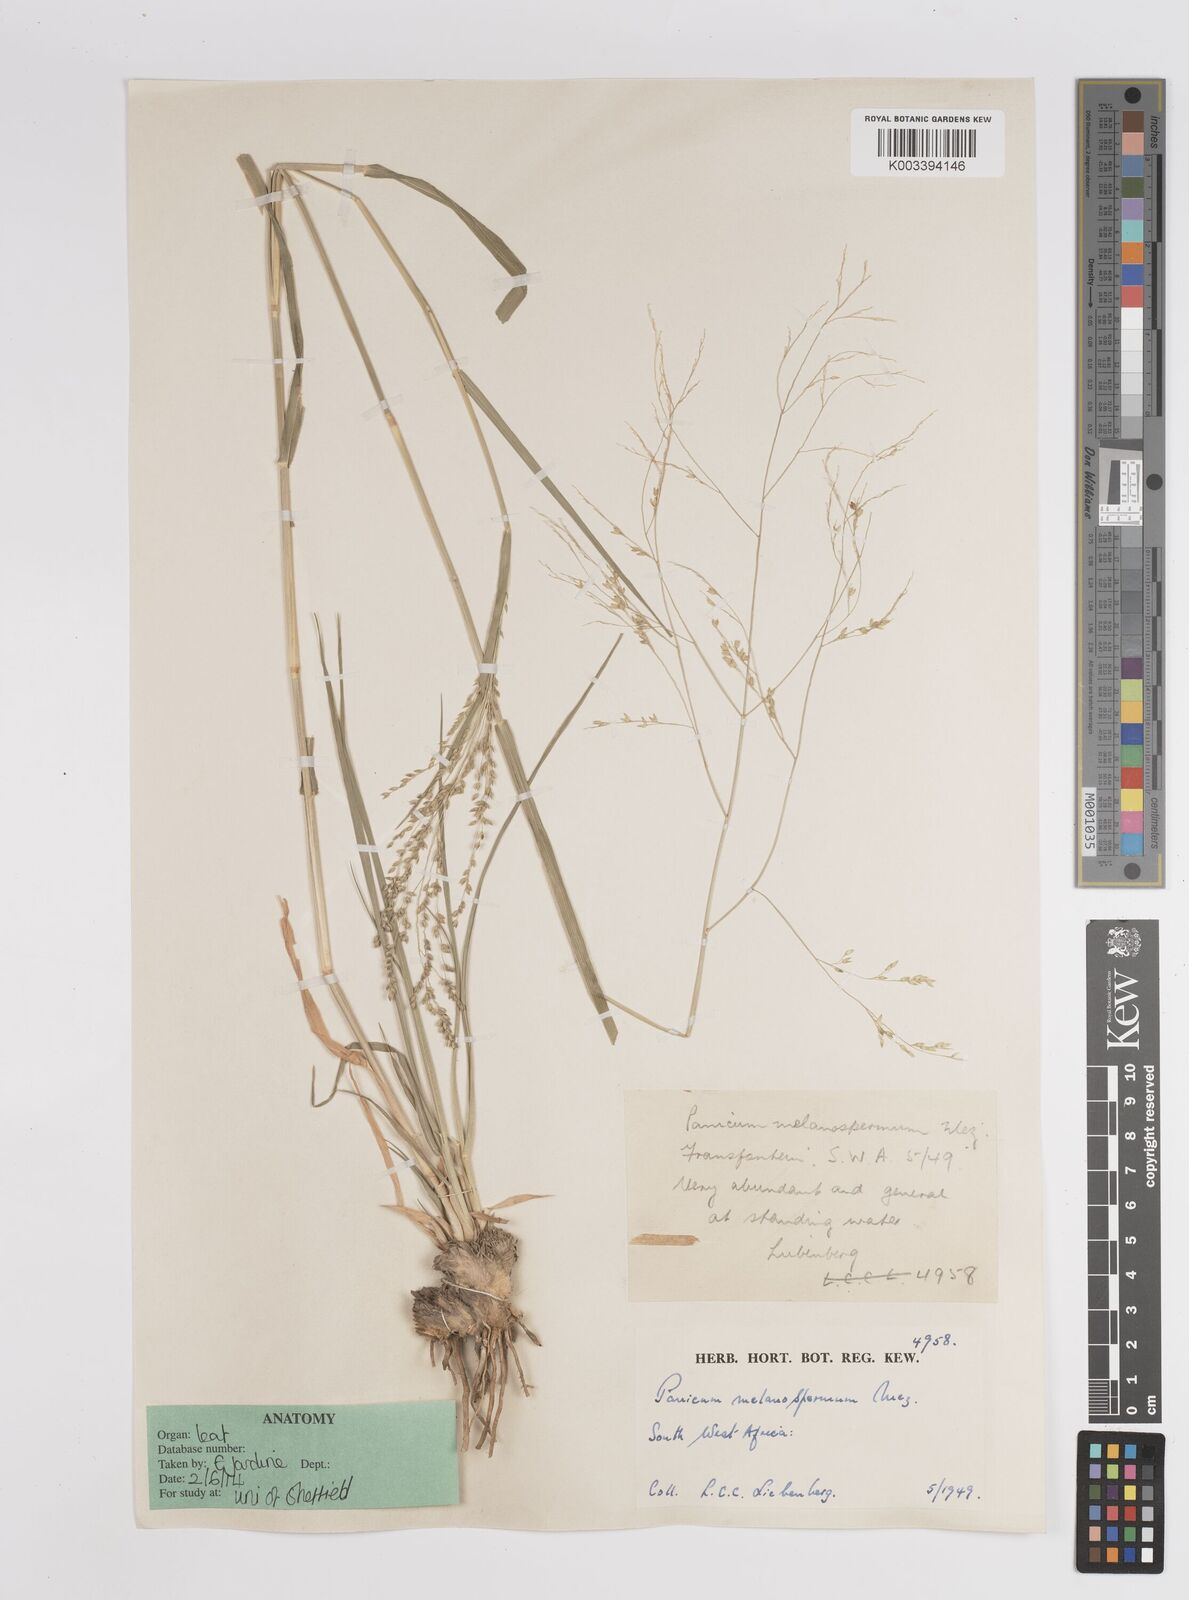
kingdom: Plantae
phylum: Tracheophyta
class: Liliopsida
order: Poales
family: Poaceae
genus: Panicum
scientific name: Panicum lanipes
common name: Wolvoet panicum
